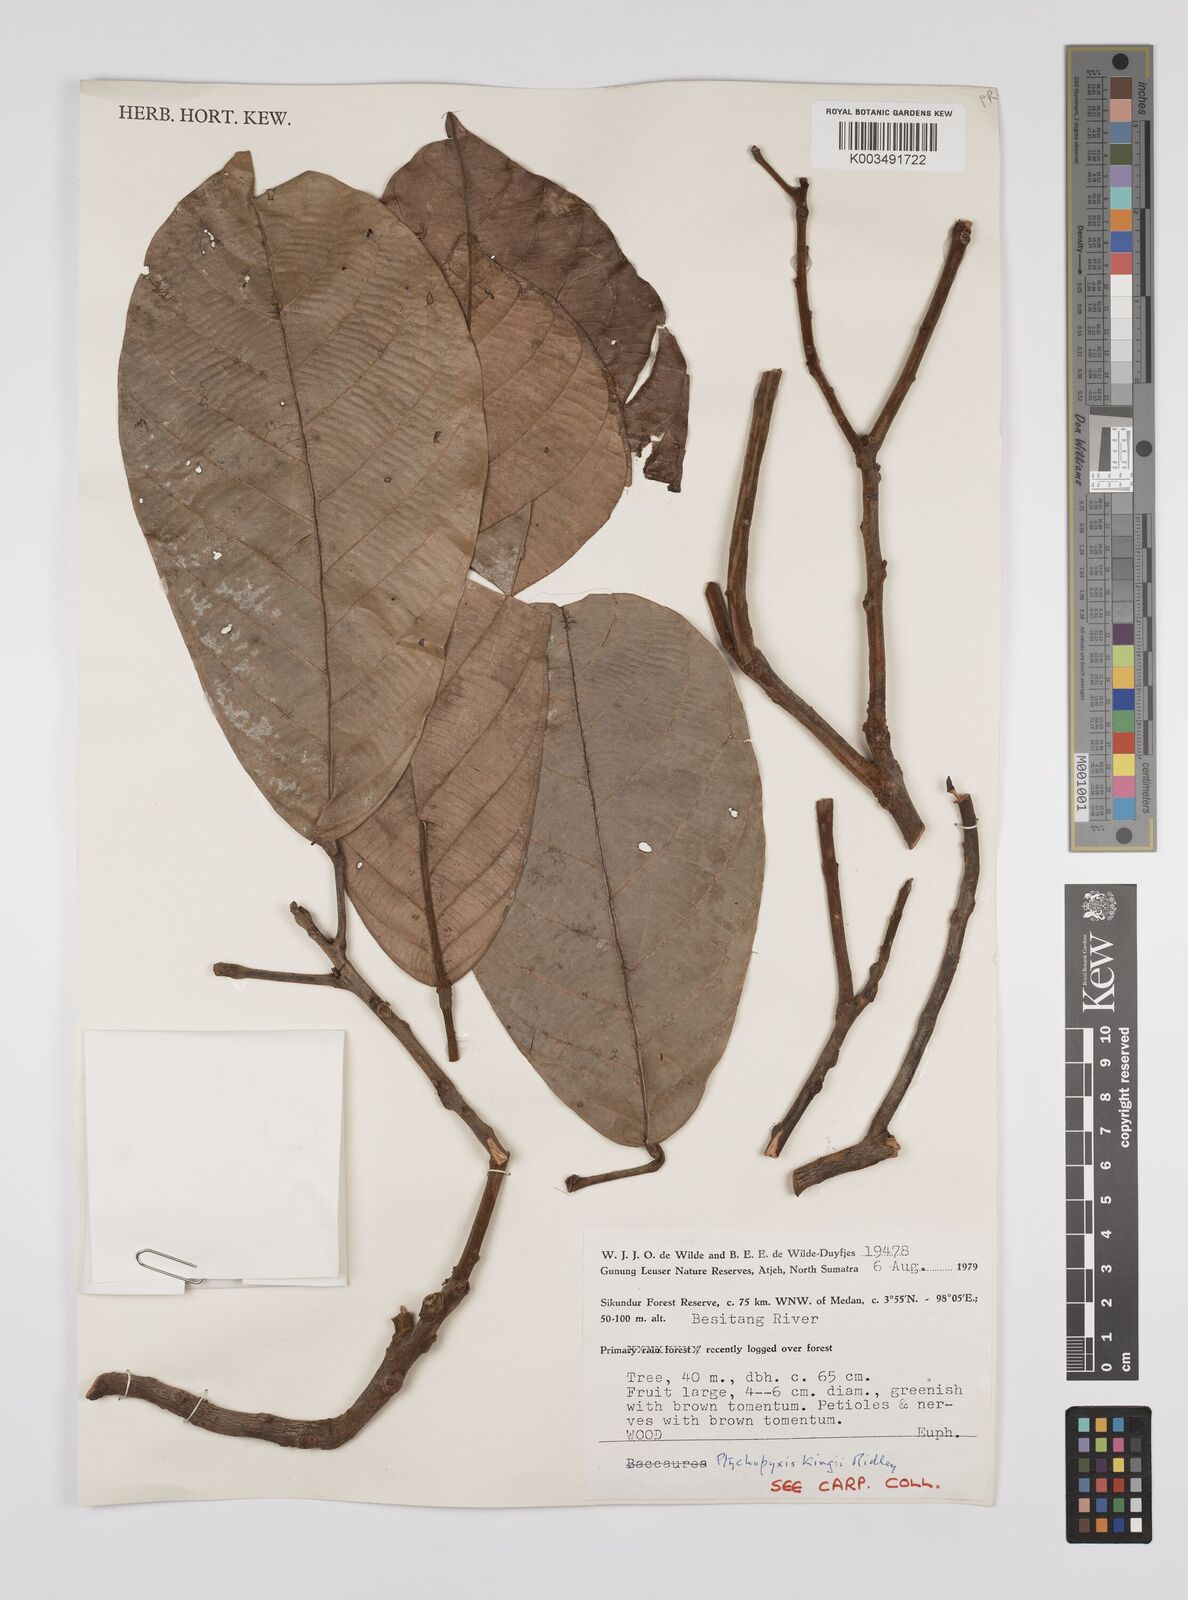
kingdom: Plantae
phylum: Tracheophyta
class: Magnoliopsida
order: Malpighiales
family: Euphorbiaceae
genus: Ptychopyxis
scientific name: Ptychopyxis kingii
